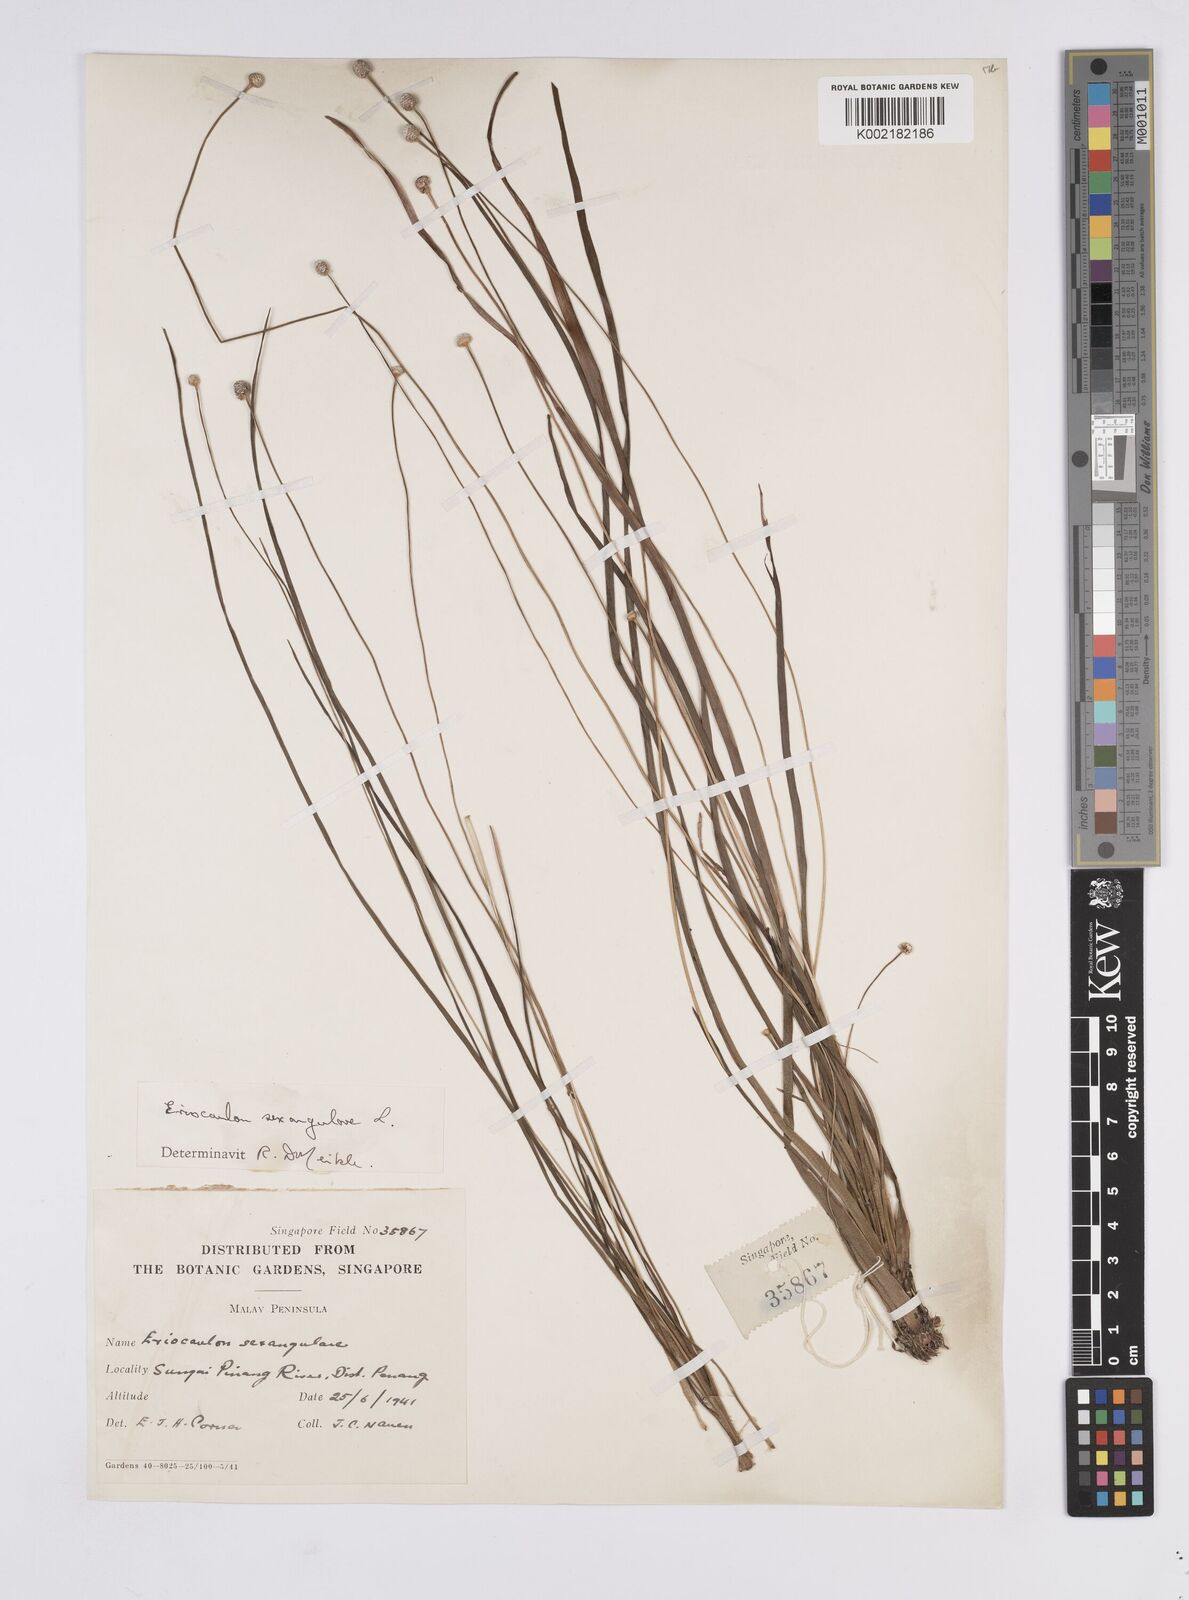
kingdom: Plantae
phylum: Tracheophyta
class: Liliopsida
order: Poales
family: Eriocaulaceae
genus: Eriocaulon
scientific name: Eriocaulon sexangulare
